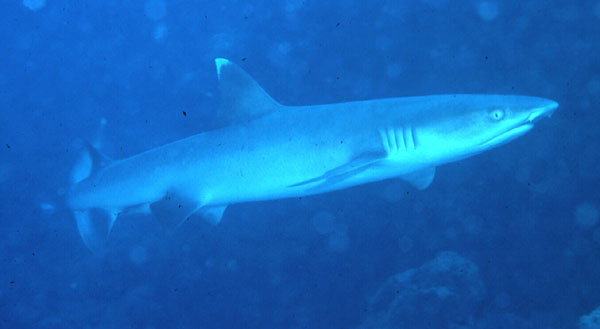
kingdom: Animalia
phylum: Chordata
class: Elasmobranchii
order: Carcharhiniformes
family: Carcharhinidae
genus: Triaenodon
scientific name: Triaenodon obesus
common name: Whitetip reef shark
